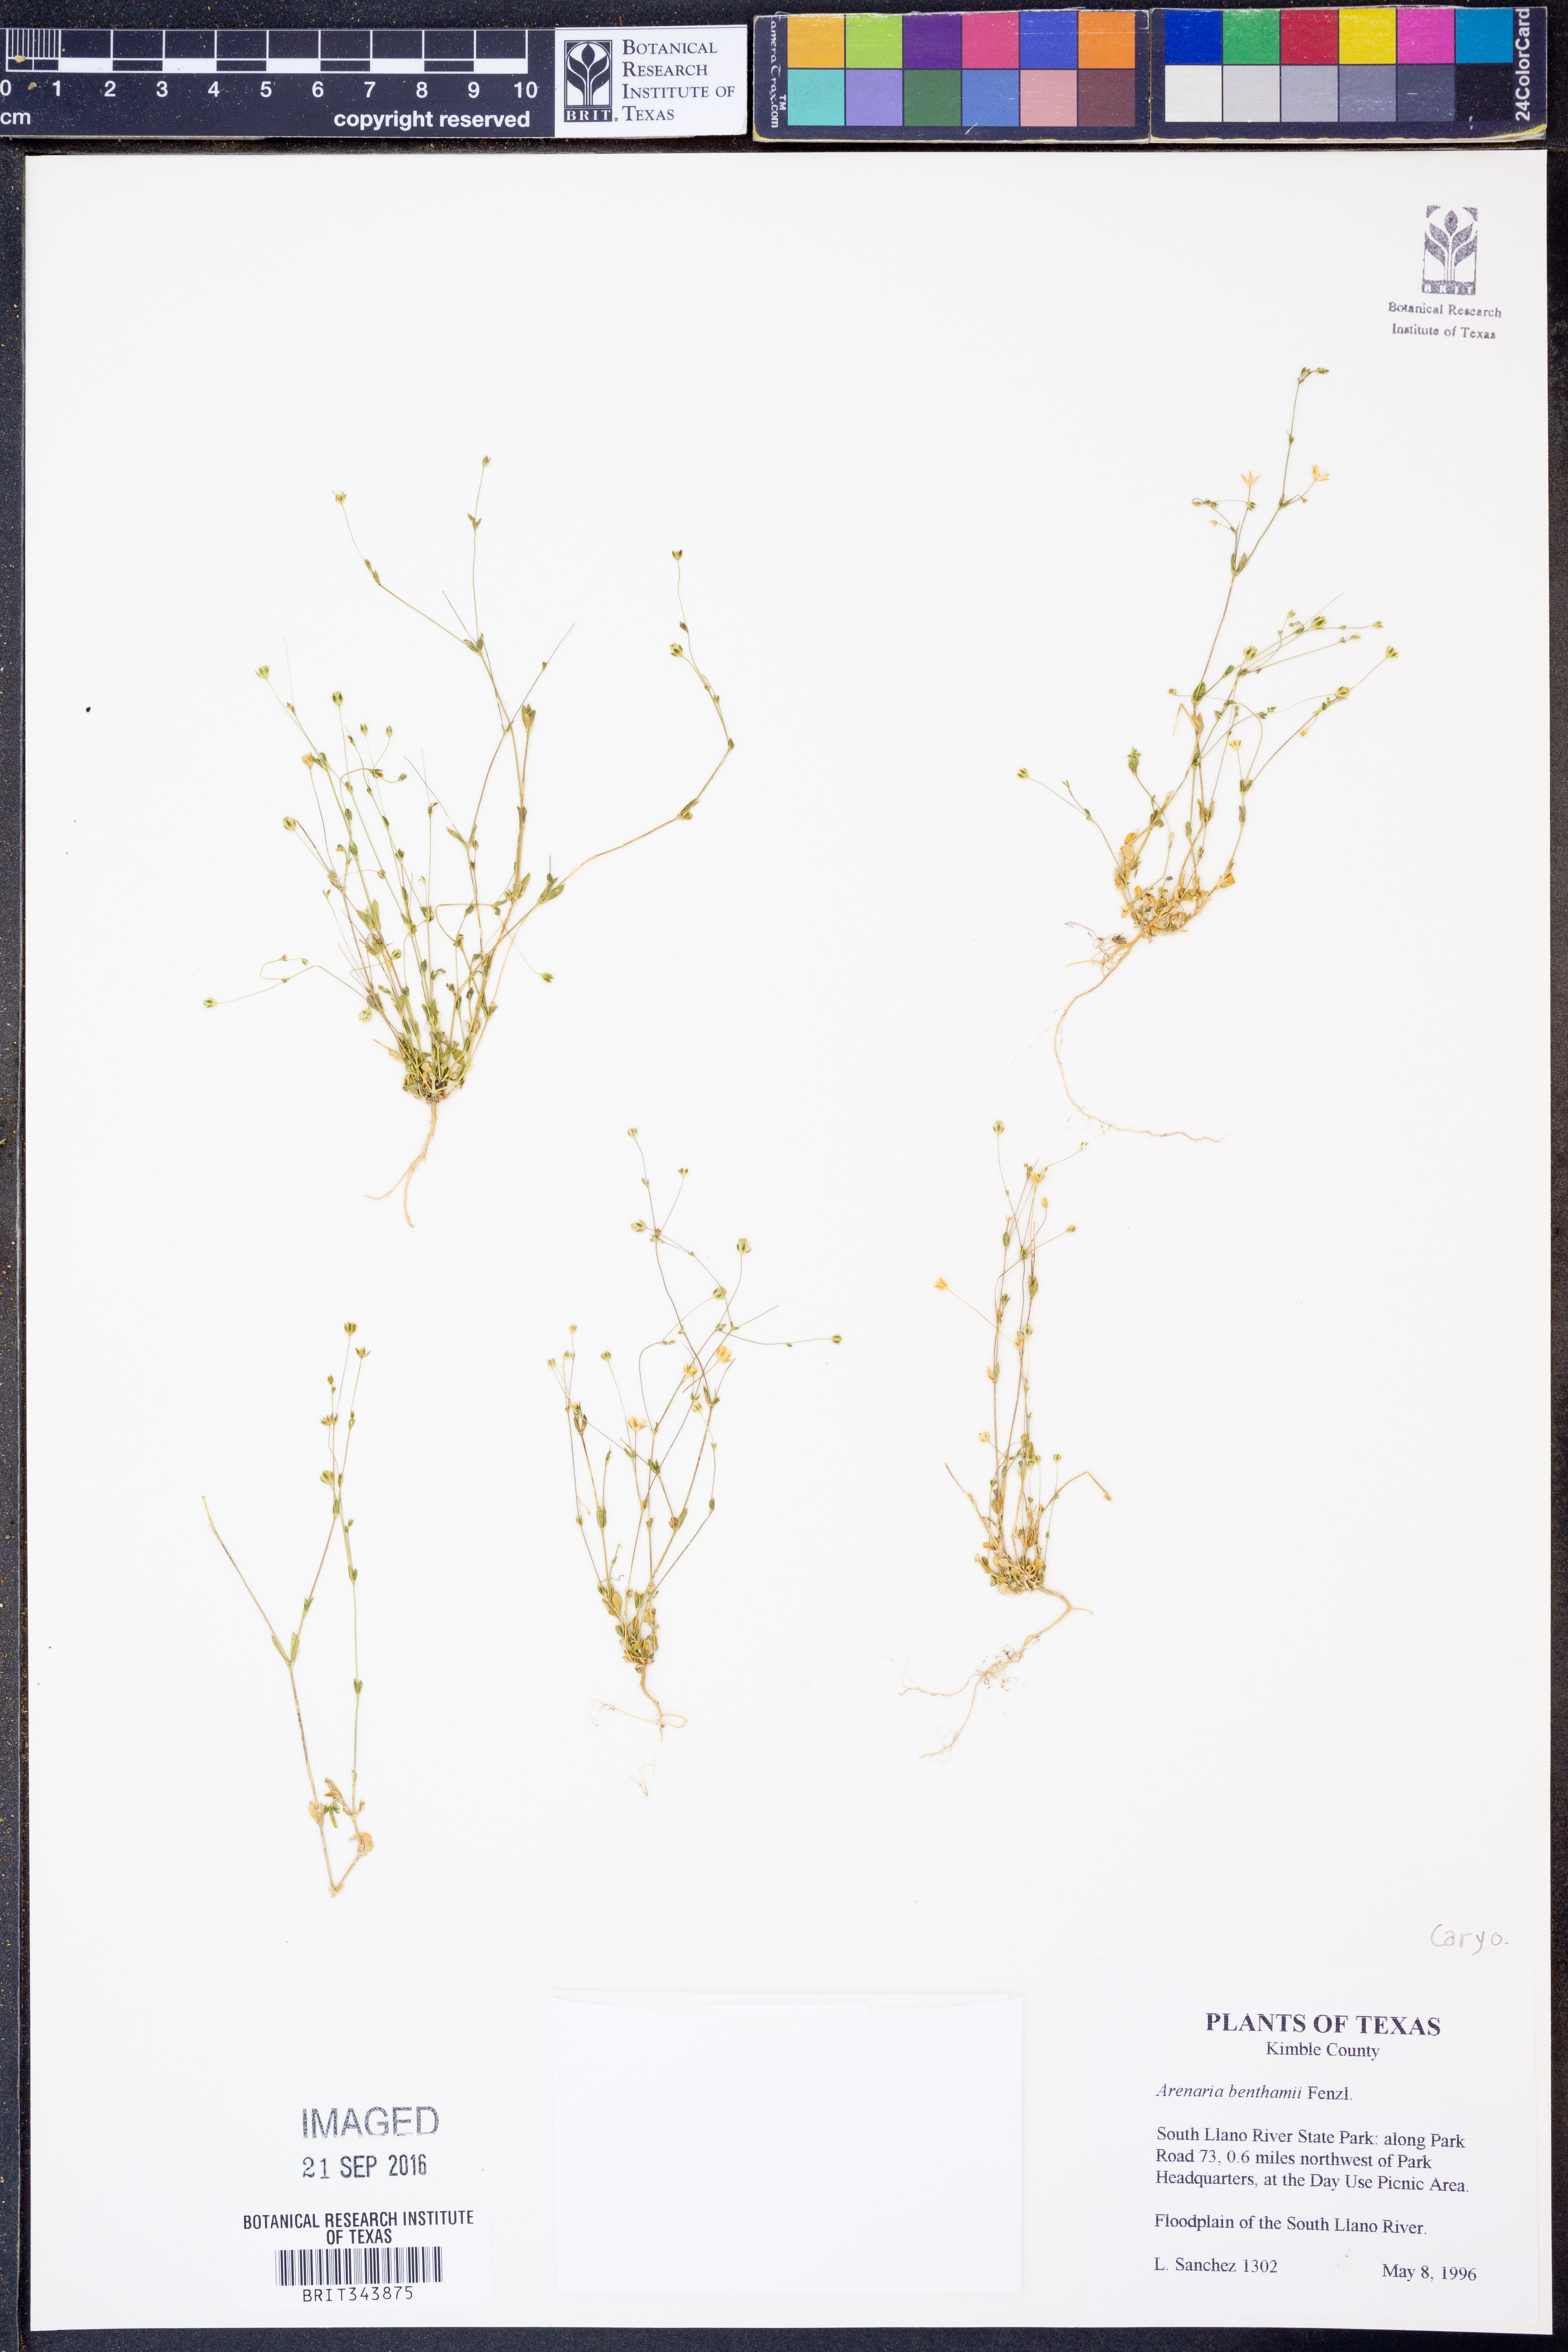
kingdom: Plantae
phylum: Tracheophyta
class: Magnoliopsida
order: Caryophyllales
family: Caryophyllaceae
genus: Arenaria
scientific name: Arenaria benthamii
